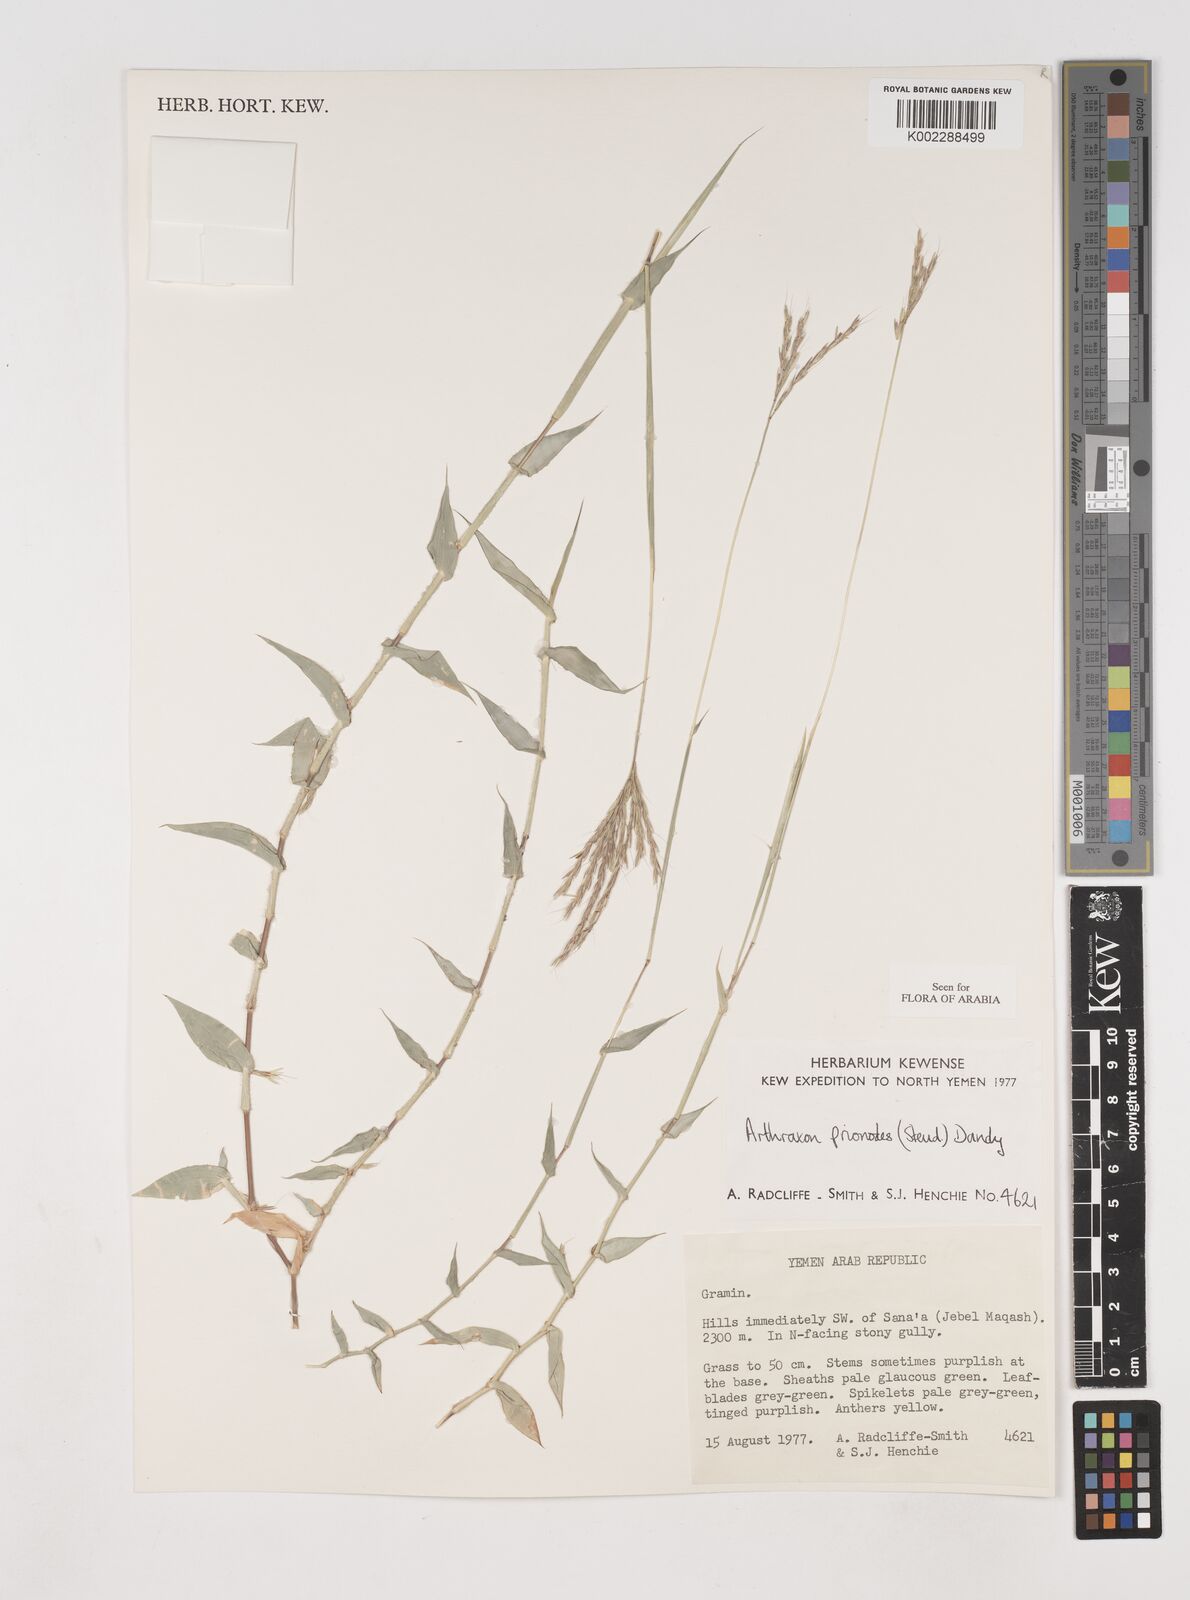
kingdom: Plantae
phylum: Tracheophyta
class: Liliopsida
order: Poales
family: Poaceae
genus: Arthraxon
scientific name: Arthraxon prionodes
